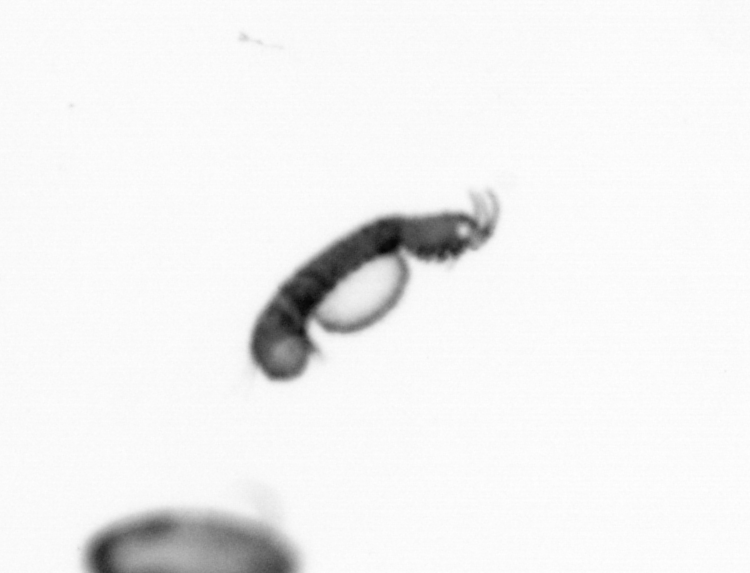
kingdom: Animalia
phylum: Annelida
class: Polychaeta
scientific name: Polychaeta
